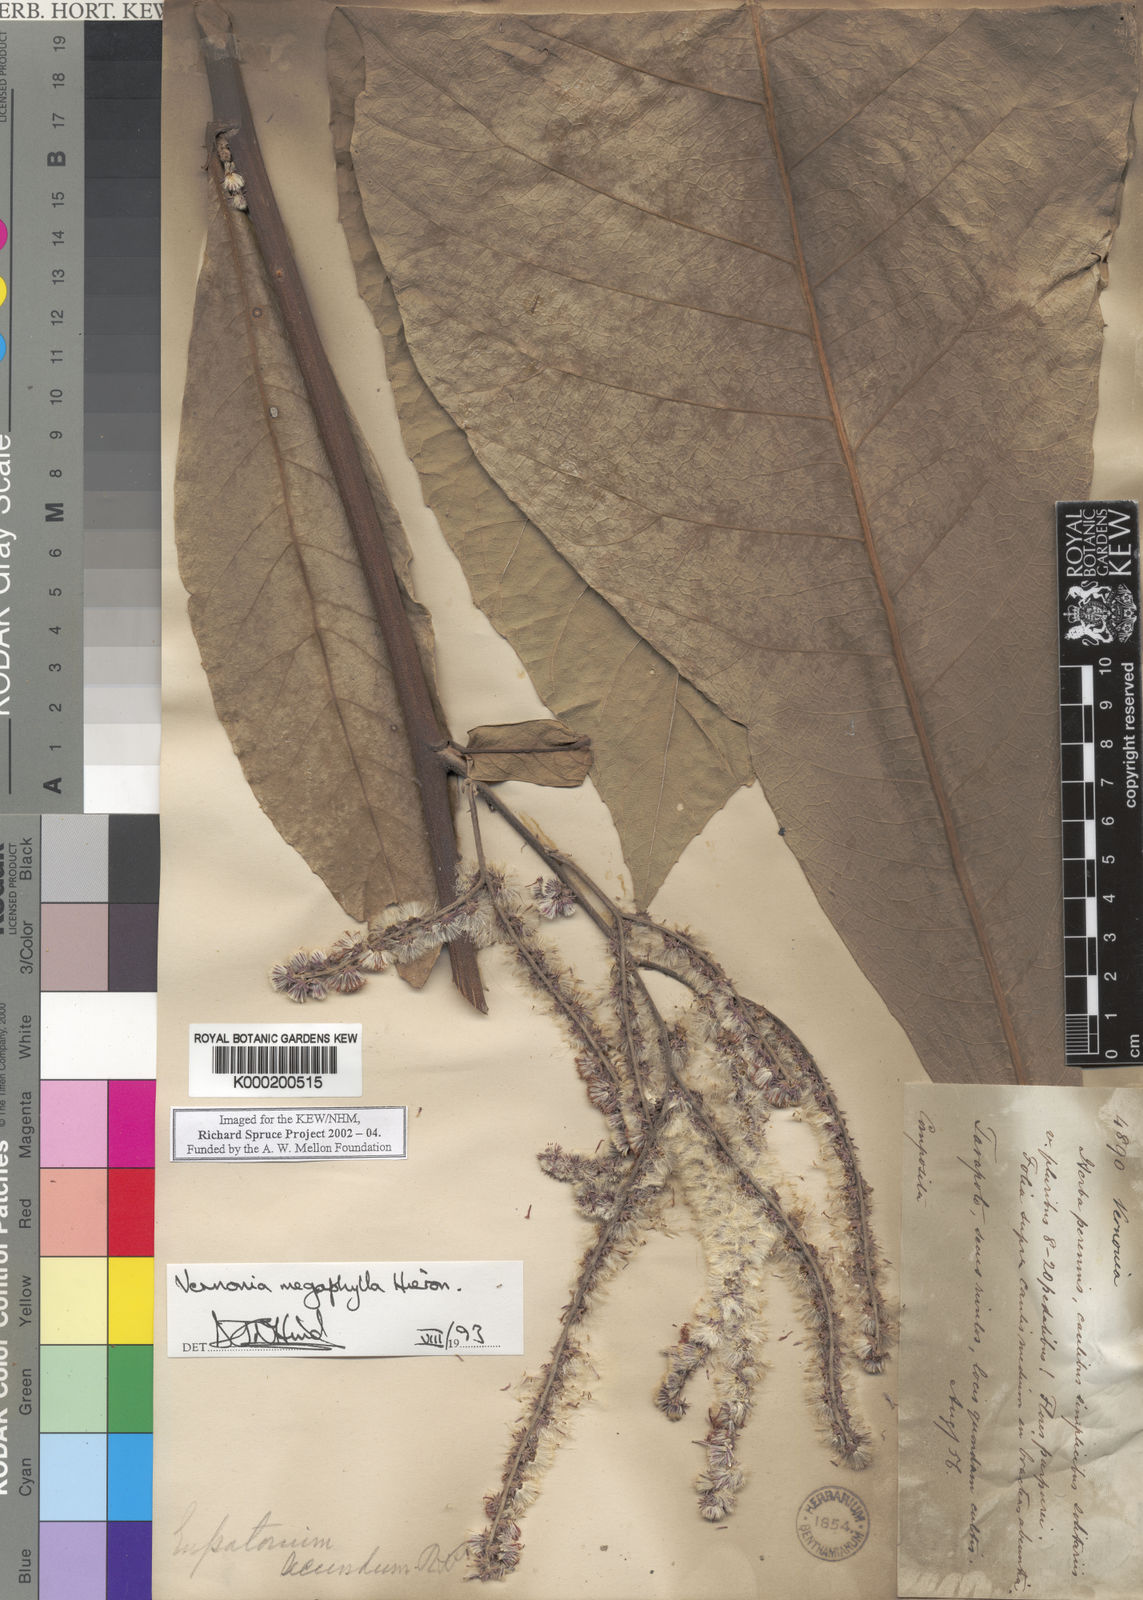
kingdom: Plantae
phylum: Tracheophyta
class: Magnoliopsida
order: Asterales
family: Asteraceae
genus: Eirmocephala
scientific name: Eirmocephala megaphylla
